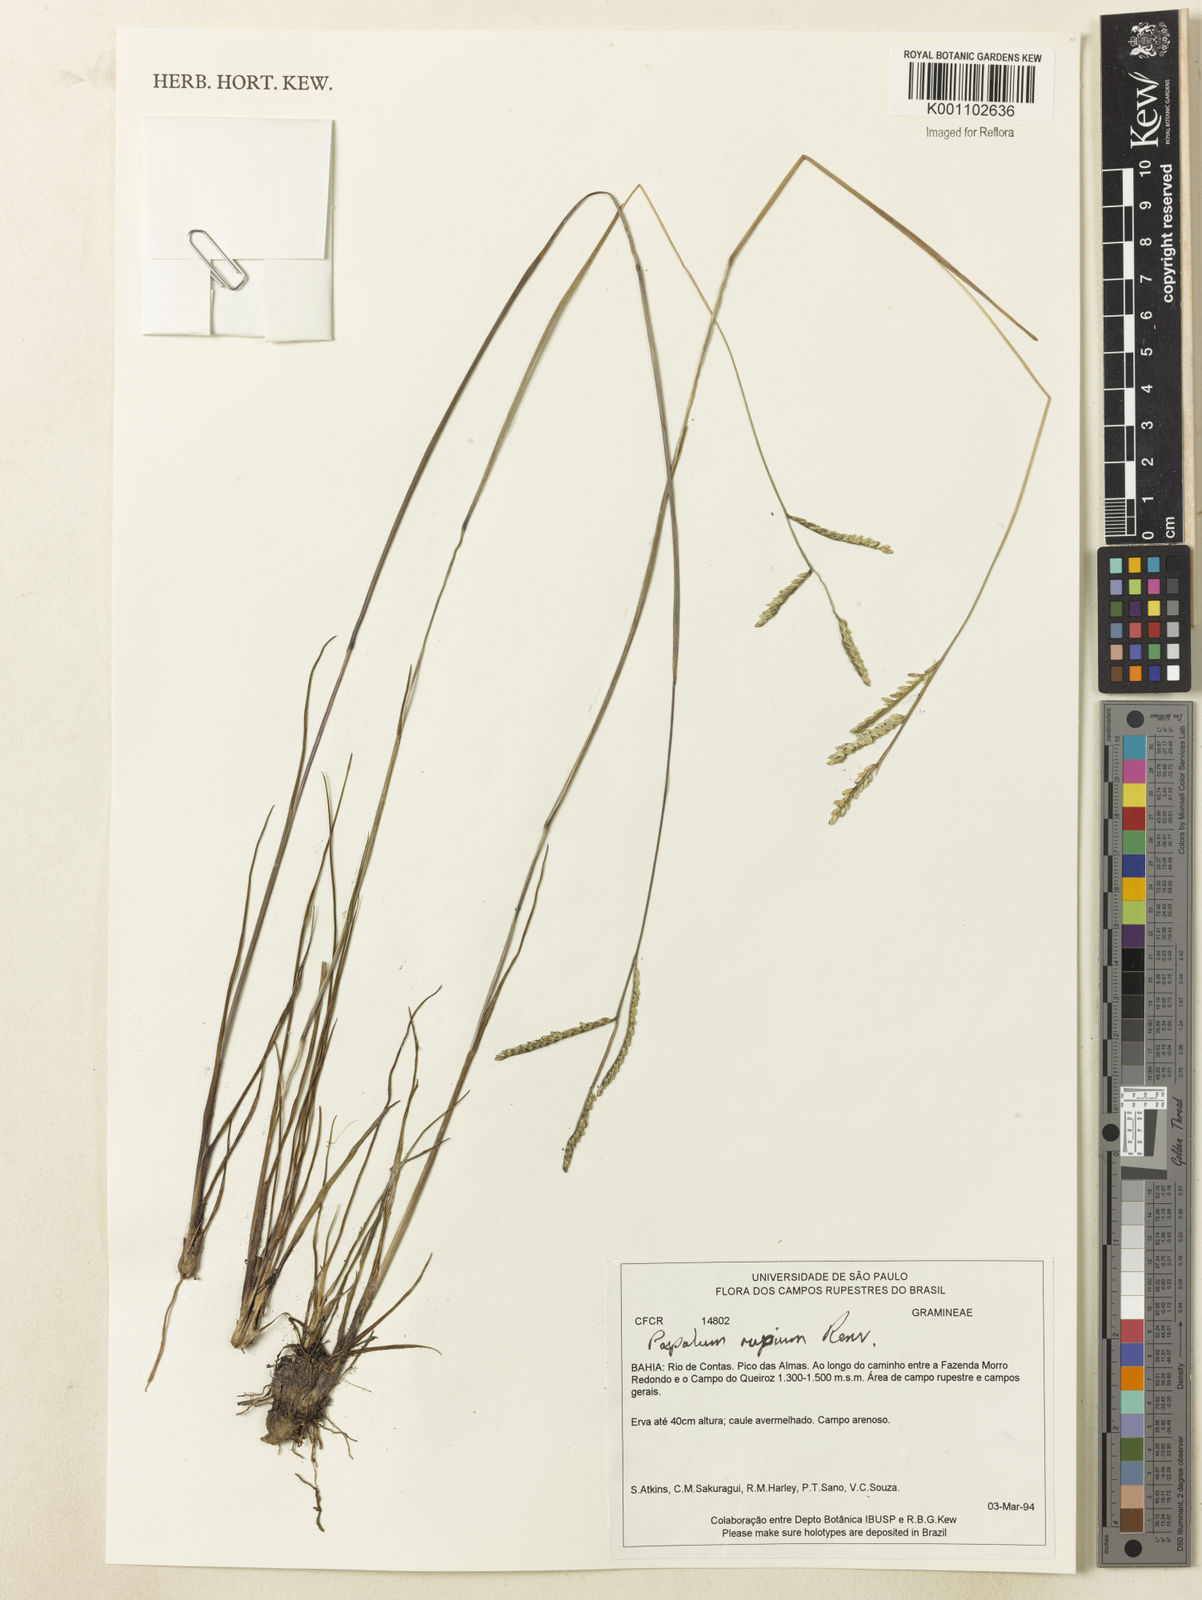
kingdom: Plantae
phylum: Tracheophyta
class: Liliopsida
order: Poales
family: Poaceae
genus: Paspalum
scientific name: Paspalum rupium
